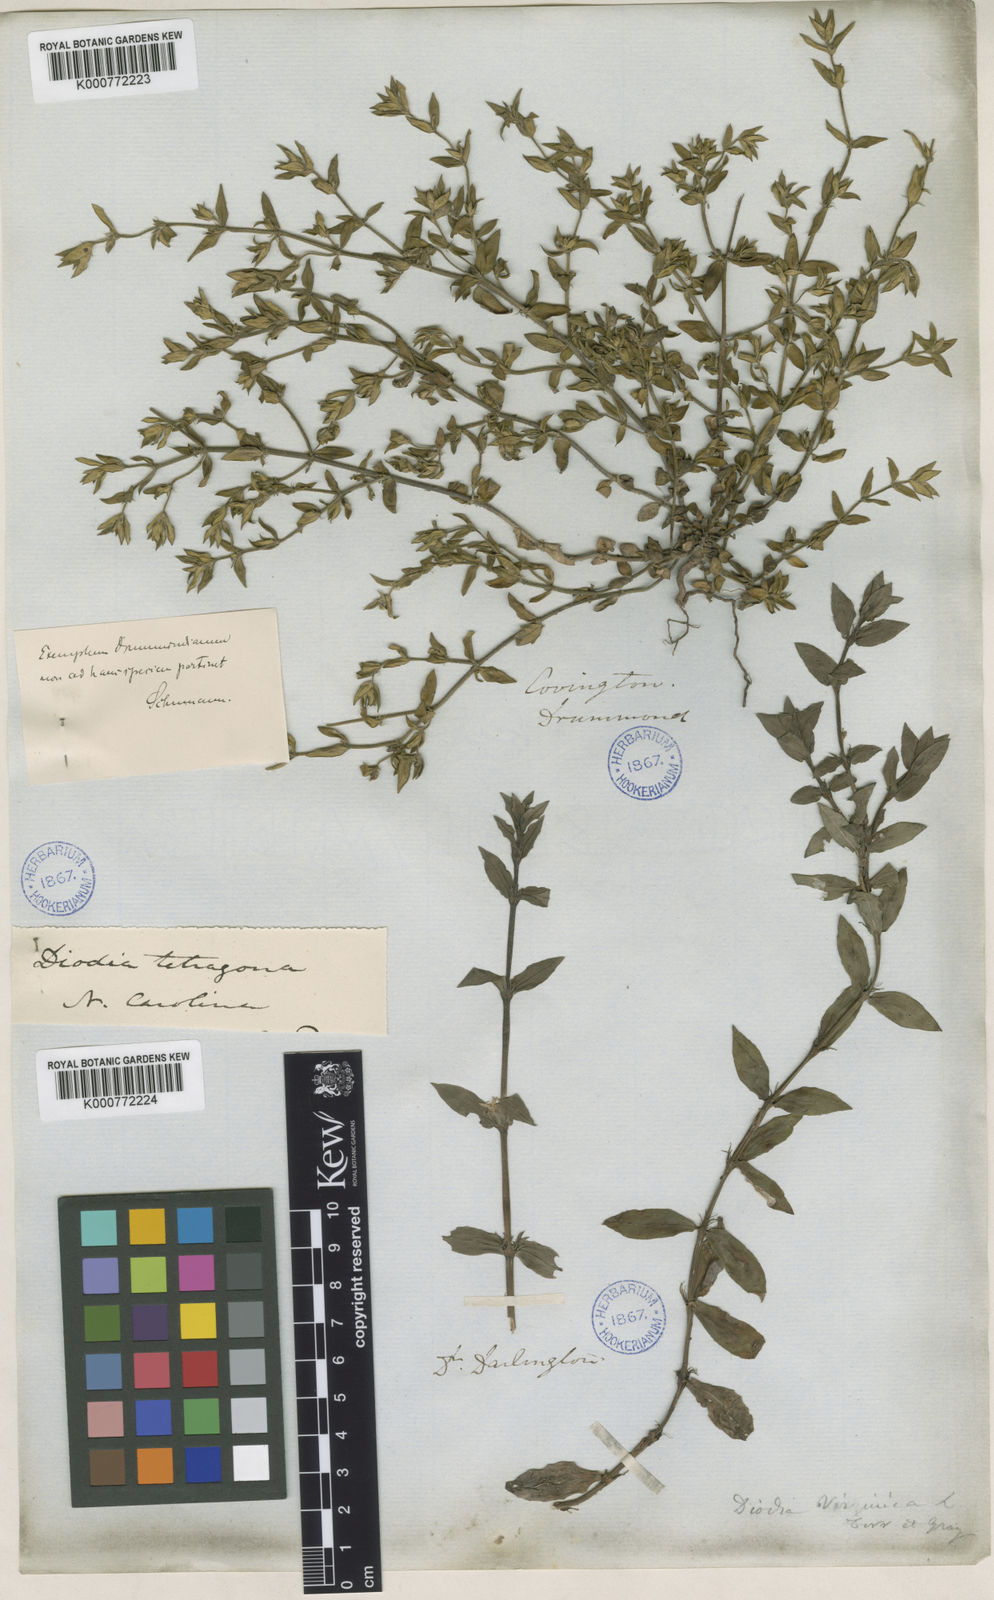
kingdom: Plantae
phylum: Tracheophyta
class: Magnoliopsida
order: Gentianales
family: Rubiaceae
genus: Diodia
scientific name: Diodia virginiana
